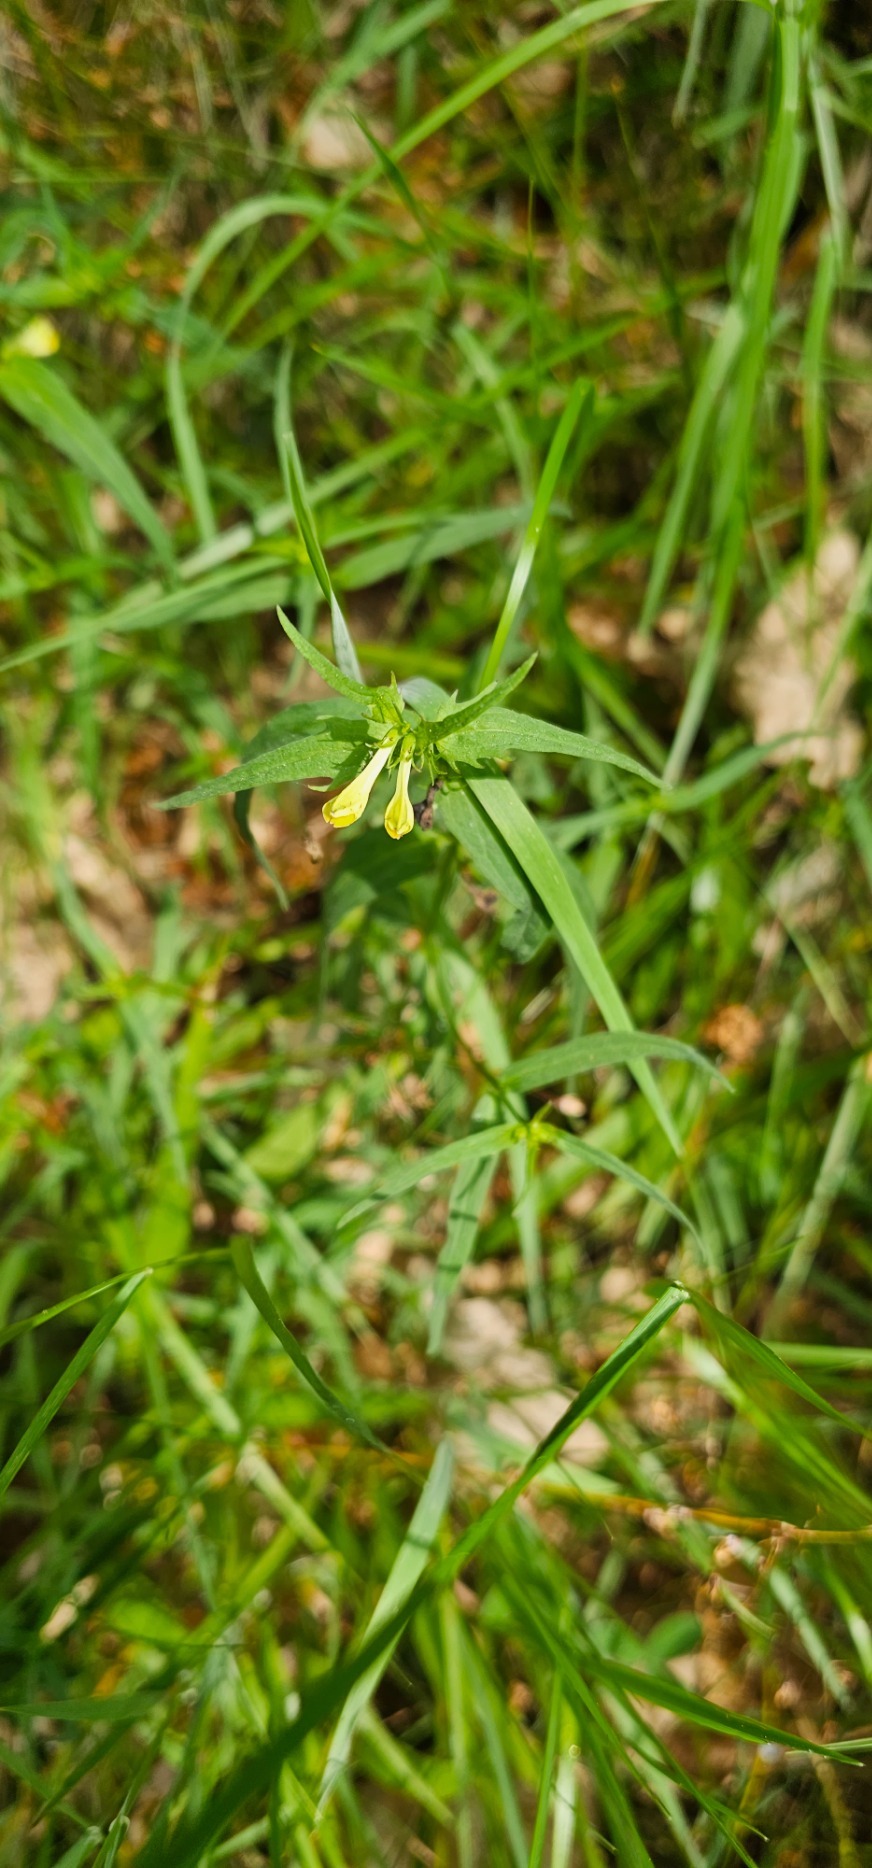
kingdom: Plantae
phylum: Tracheophyta
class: Magnoliopsida
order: Lamiales
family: Orobanchaceae
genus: Melampyrum
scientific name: Melampyrum pratense
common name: Almindelig kohvede
